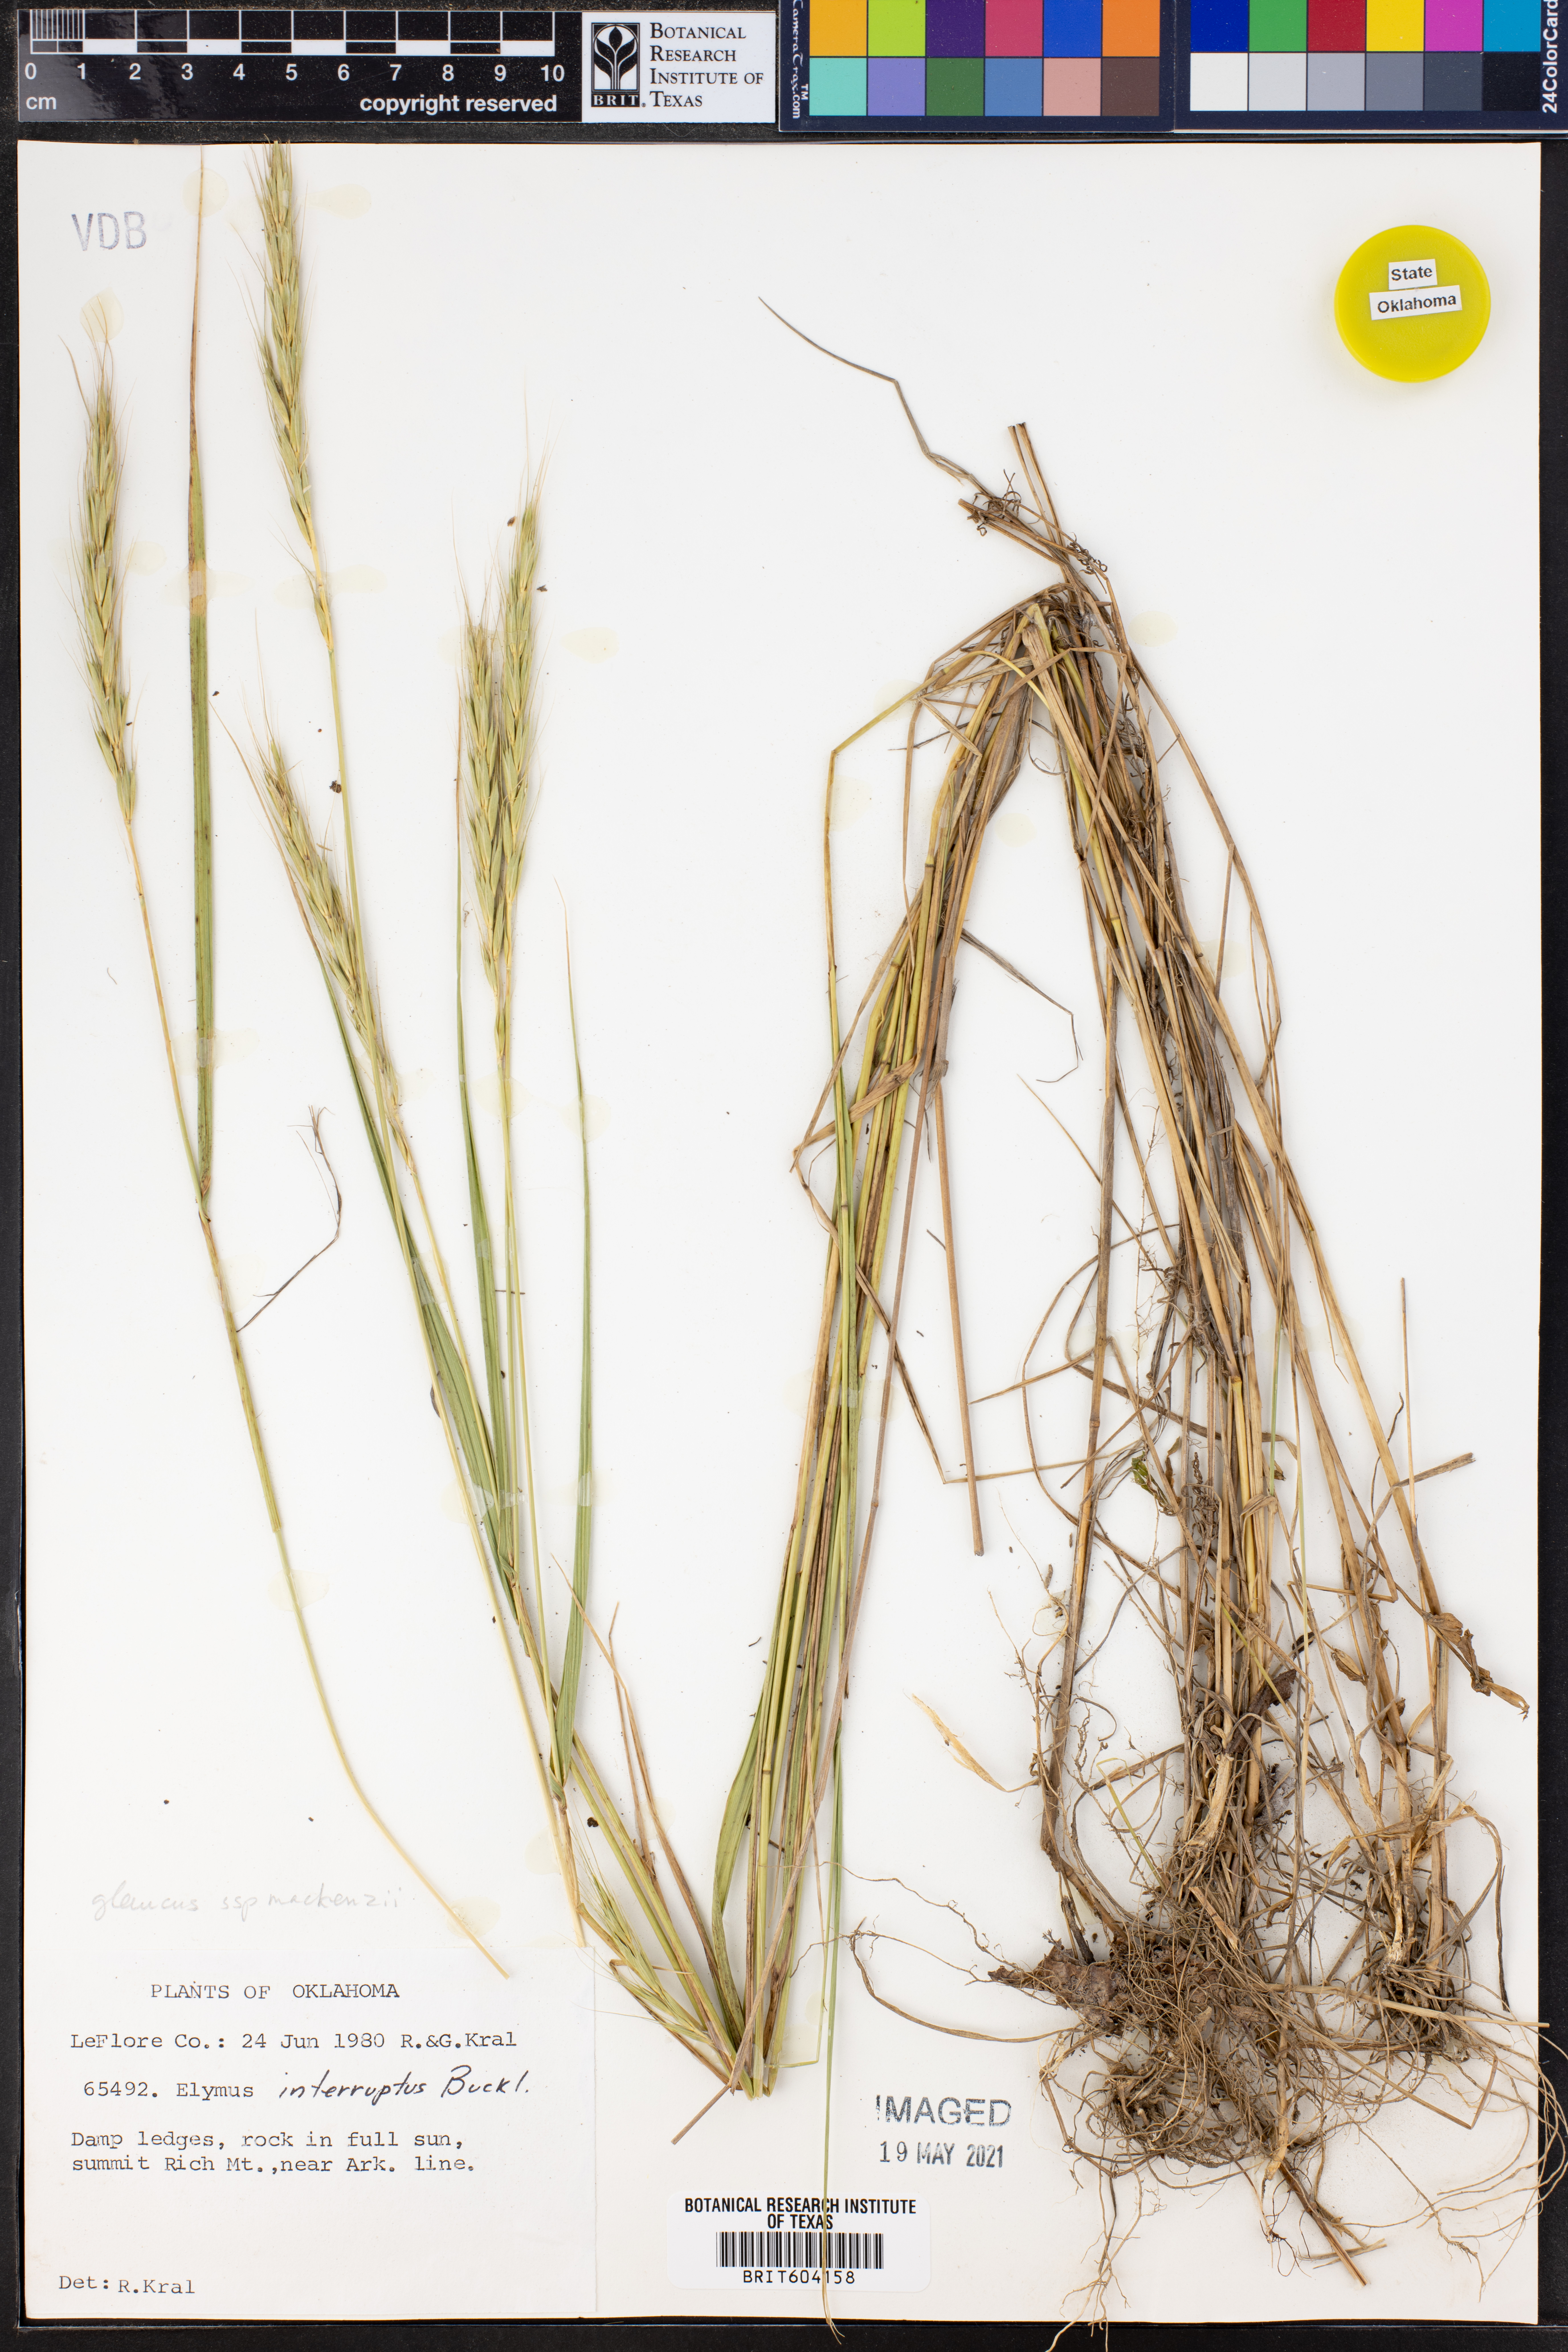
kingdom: Plantae
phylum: Tracheophyta
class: Liliopsida
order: Poales
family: Poaceae
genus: Elymus
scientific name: Elymus glaucus
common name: Blue wild rye
